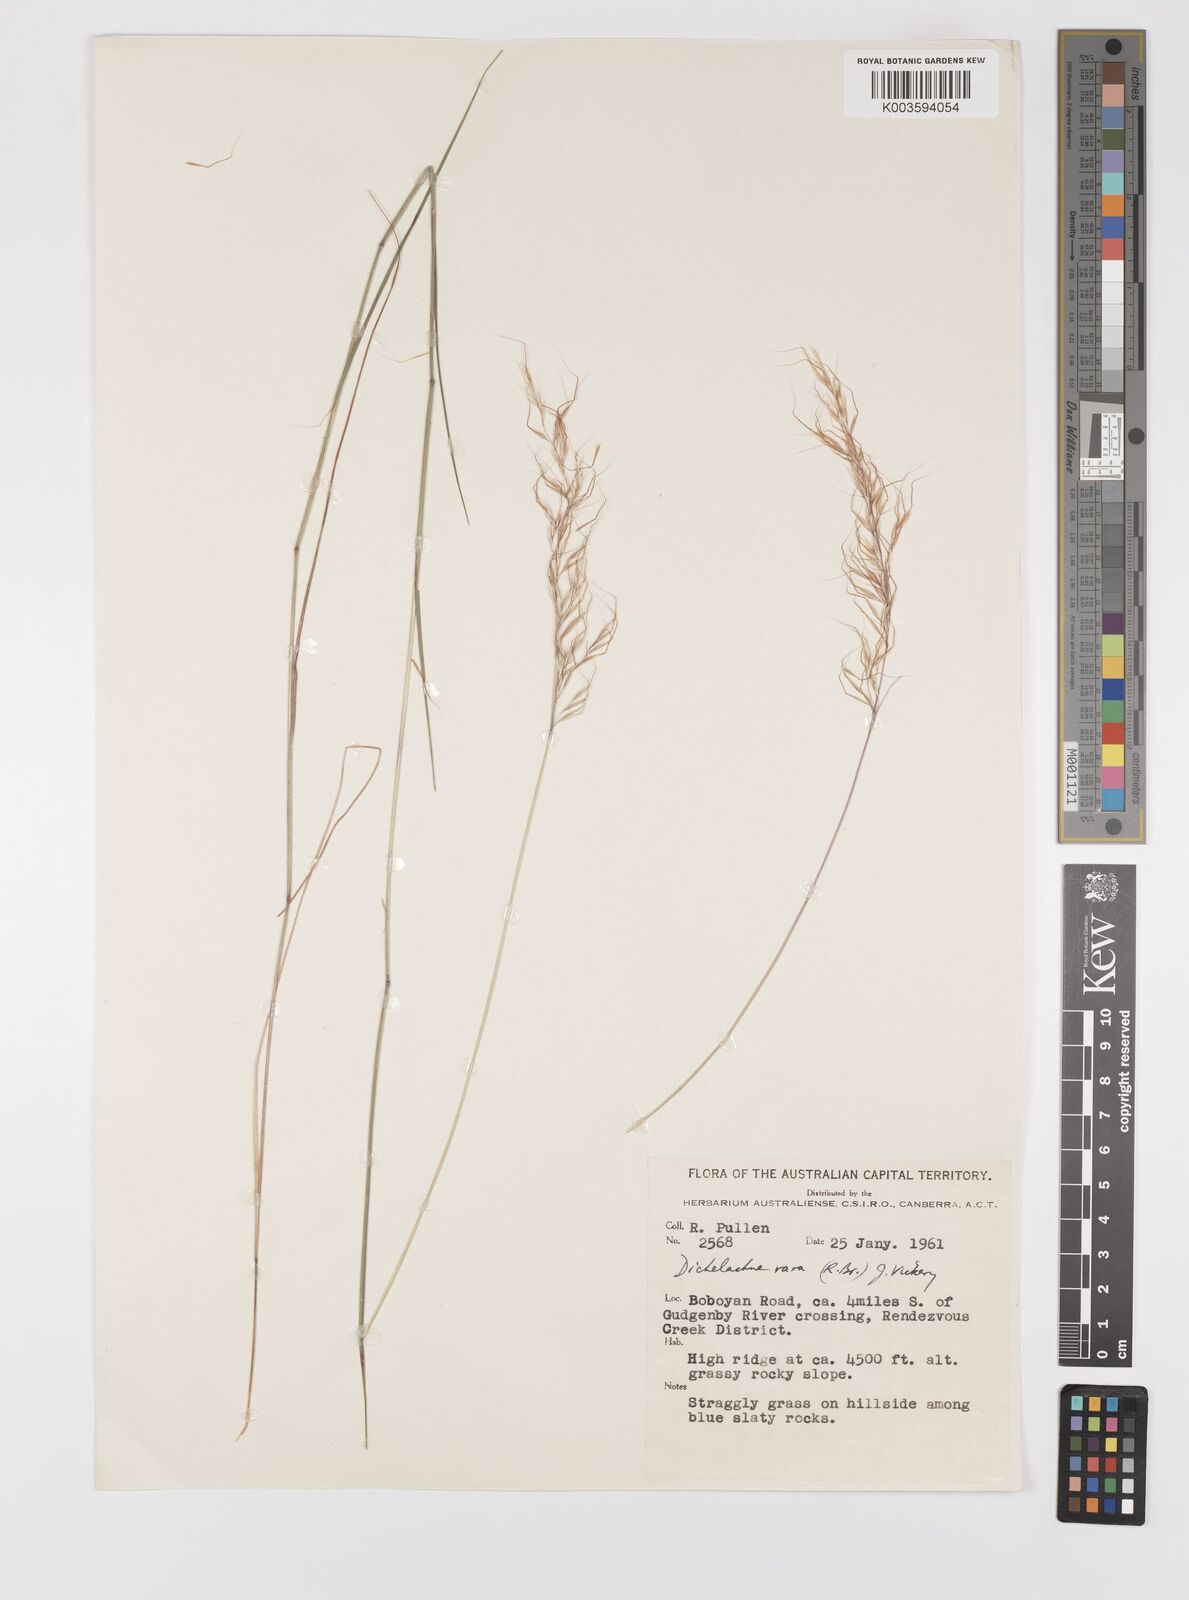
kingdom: Plantae
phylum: Tracheophyta
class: Liliopsida
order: Poales
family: Poaceae
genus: Dichelachne
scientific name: Dichelachne rara
